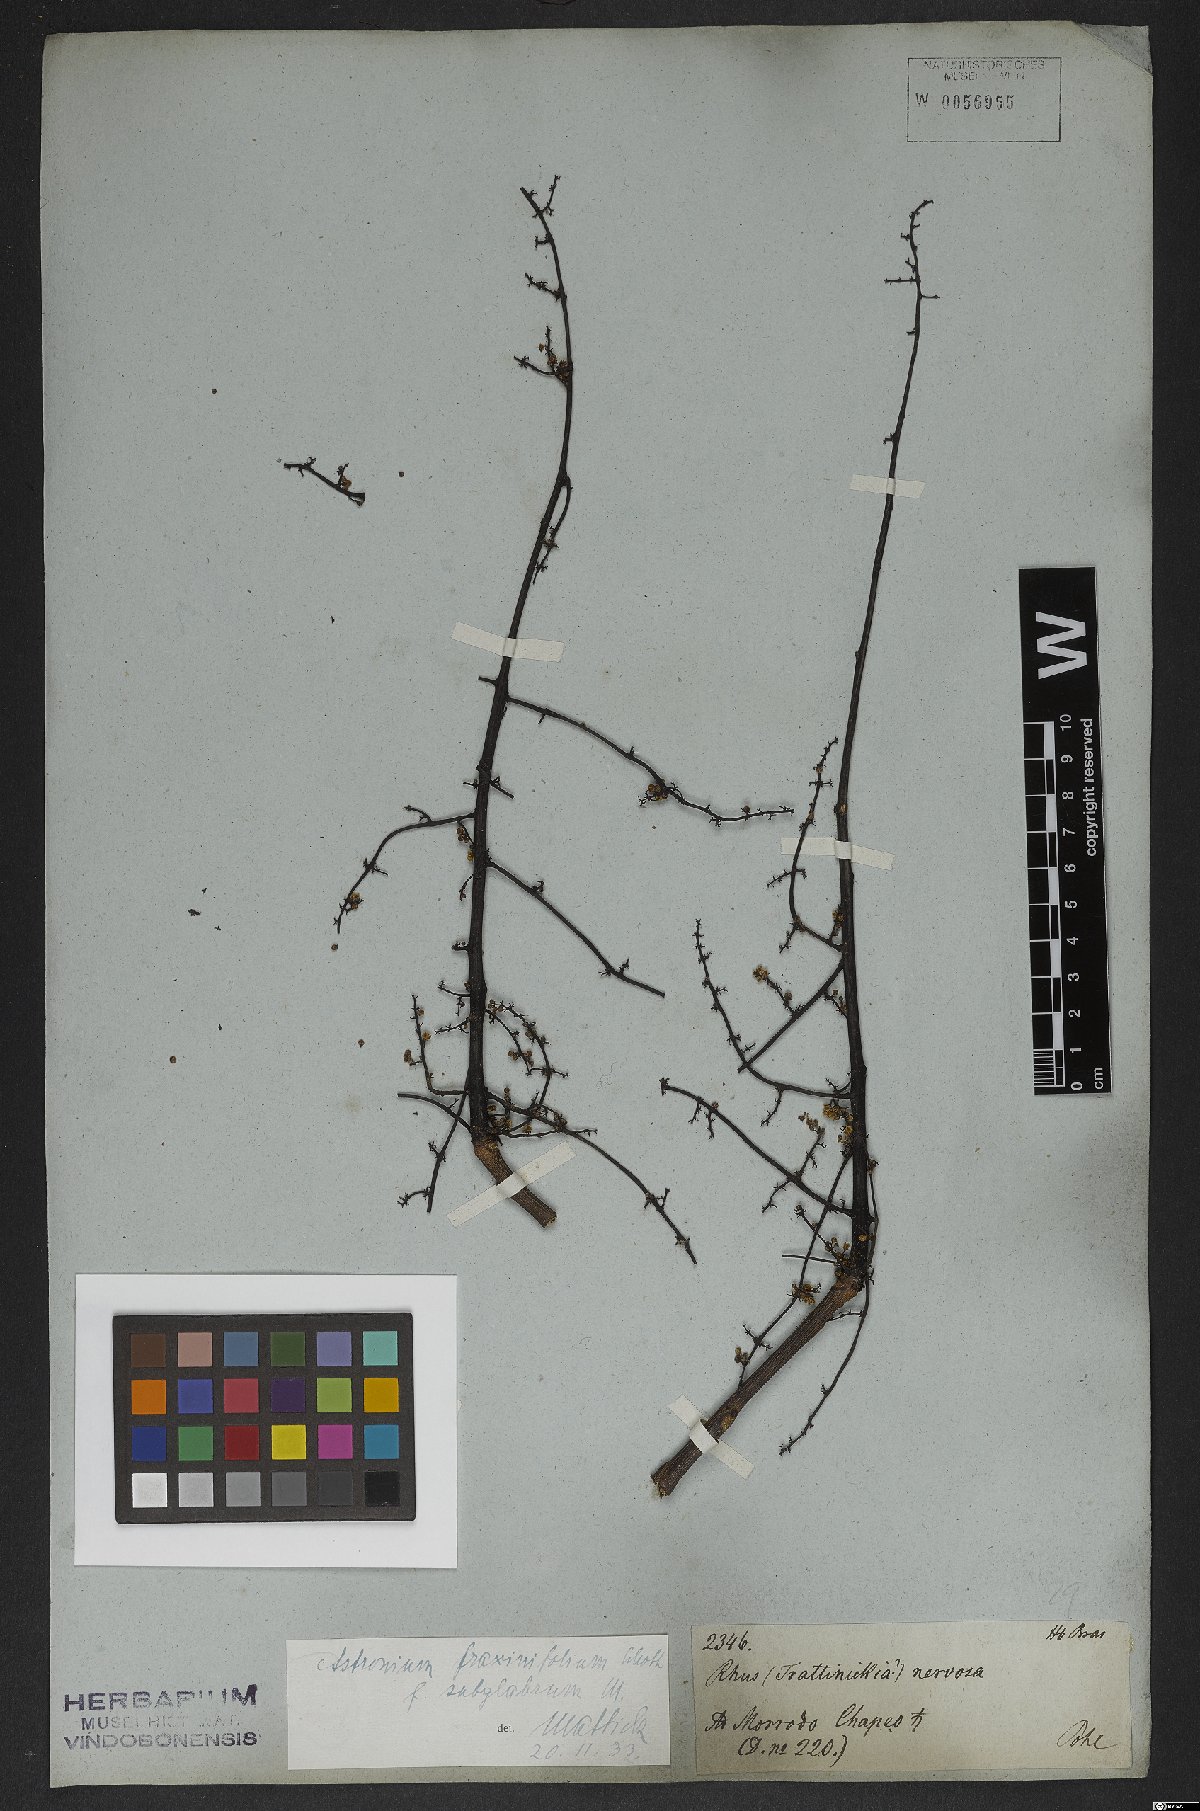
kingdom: Plantae
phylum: Tracheophyta
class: Magnoliopsida
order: Sapindales
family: Anacardiaceae
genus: Astronium
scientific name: Astronium fraxinifolium
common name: Tigerwood
